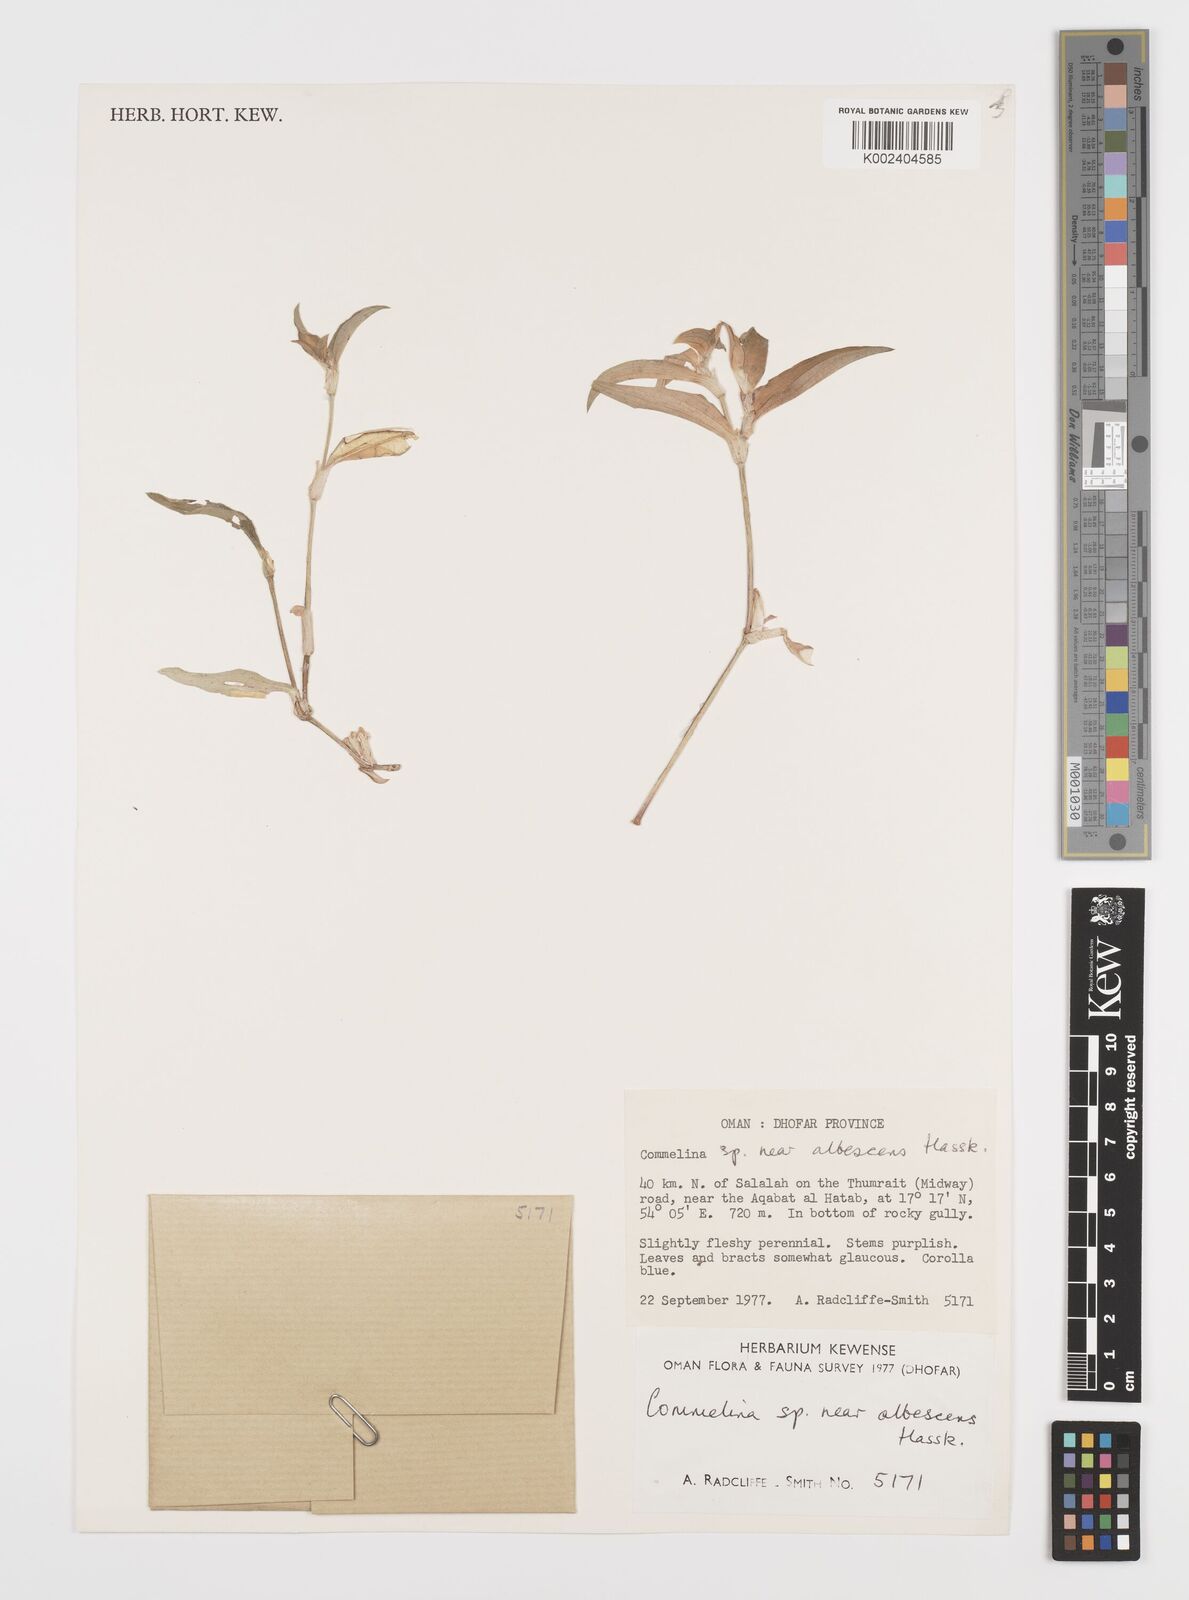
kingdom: Plantae
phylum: Tracheophyta
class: Liliopsida
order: Commelinales
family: Commelinaceae
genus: Commelina
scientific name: Commelina albescens
